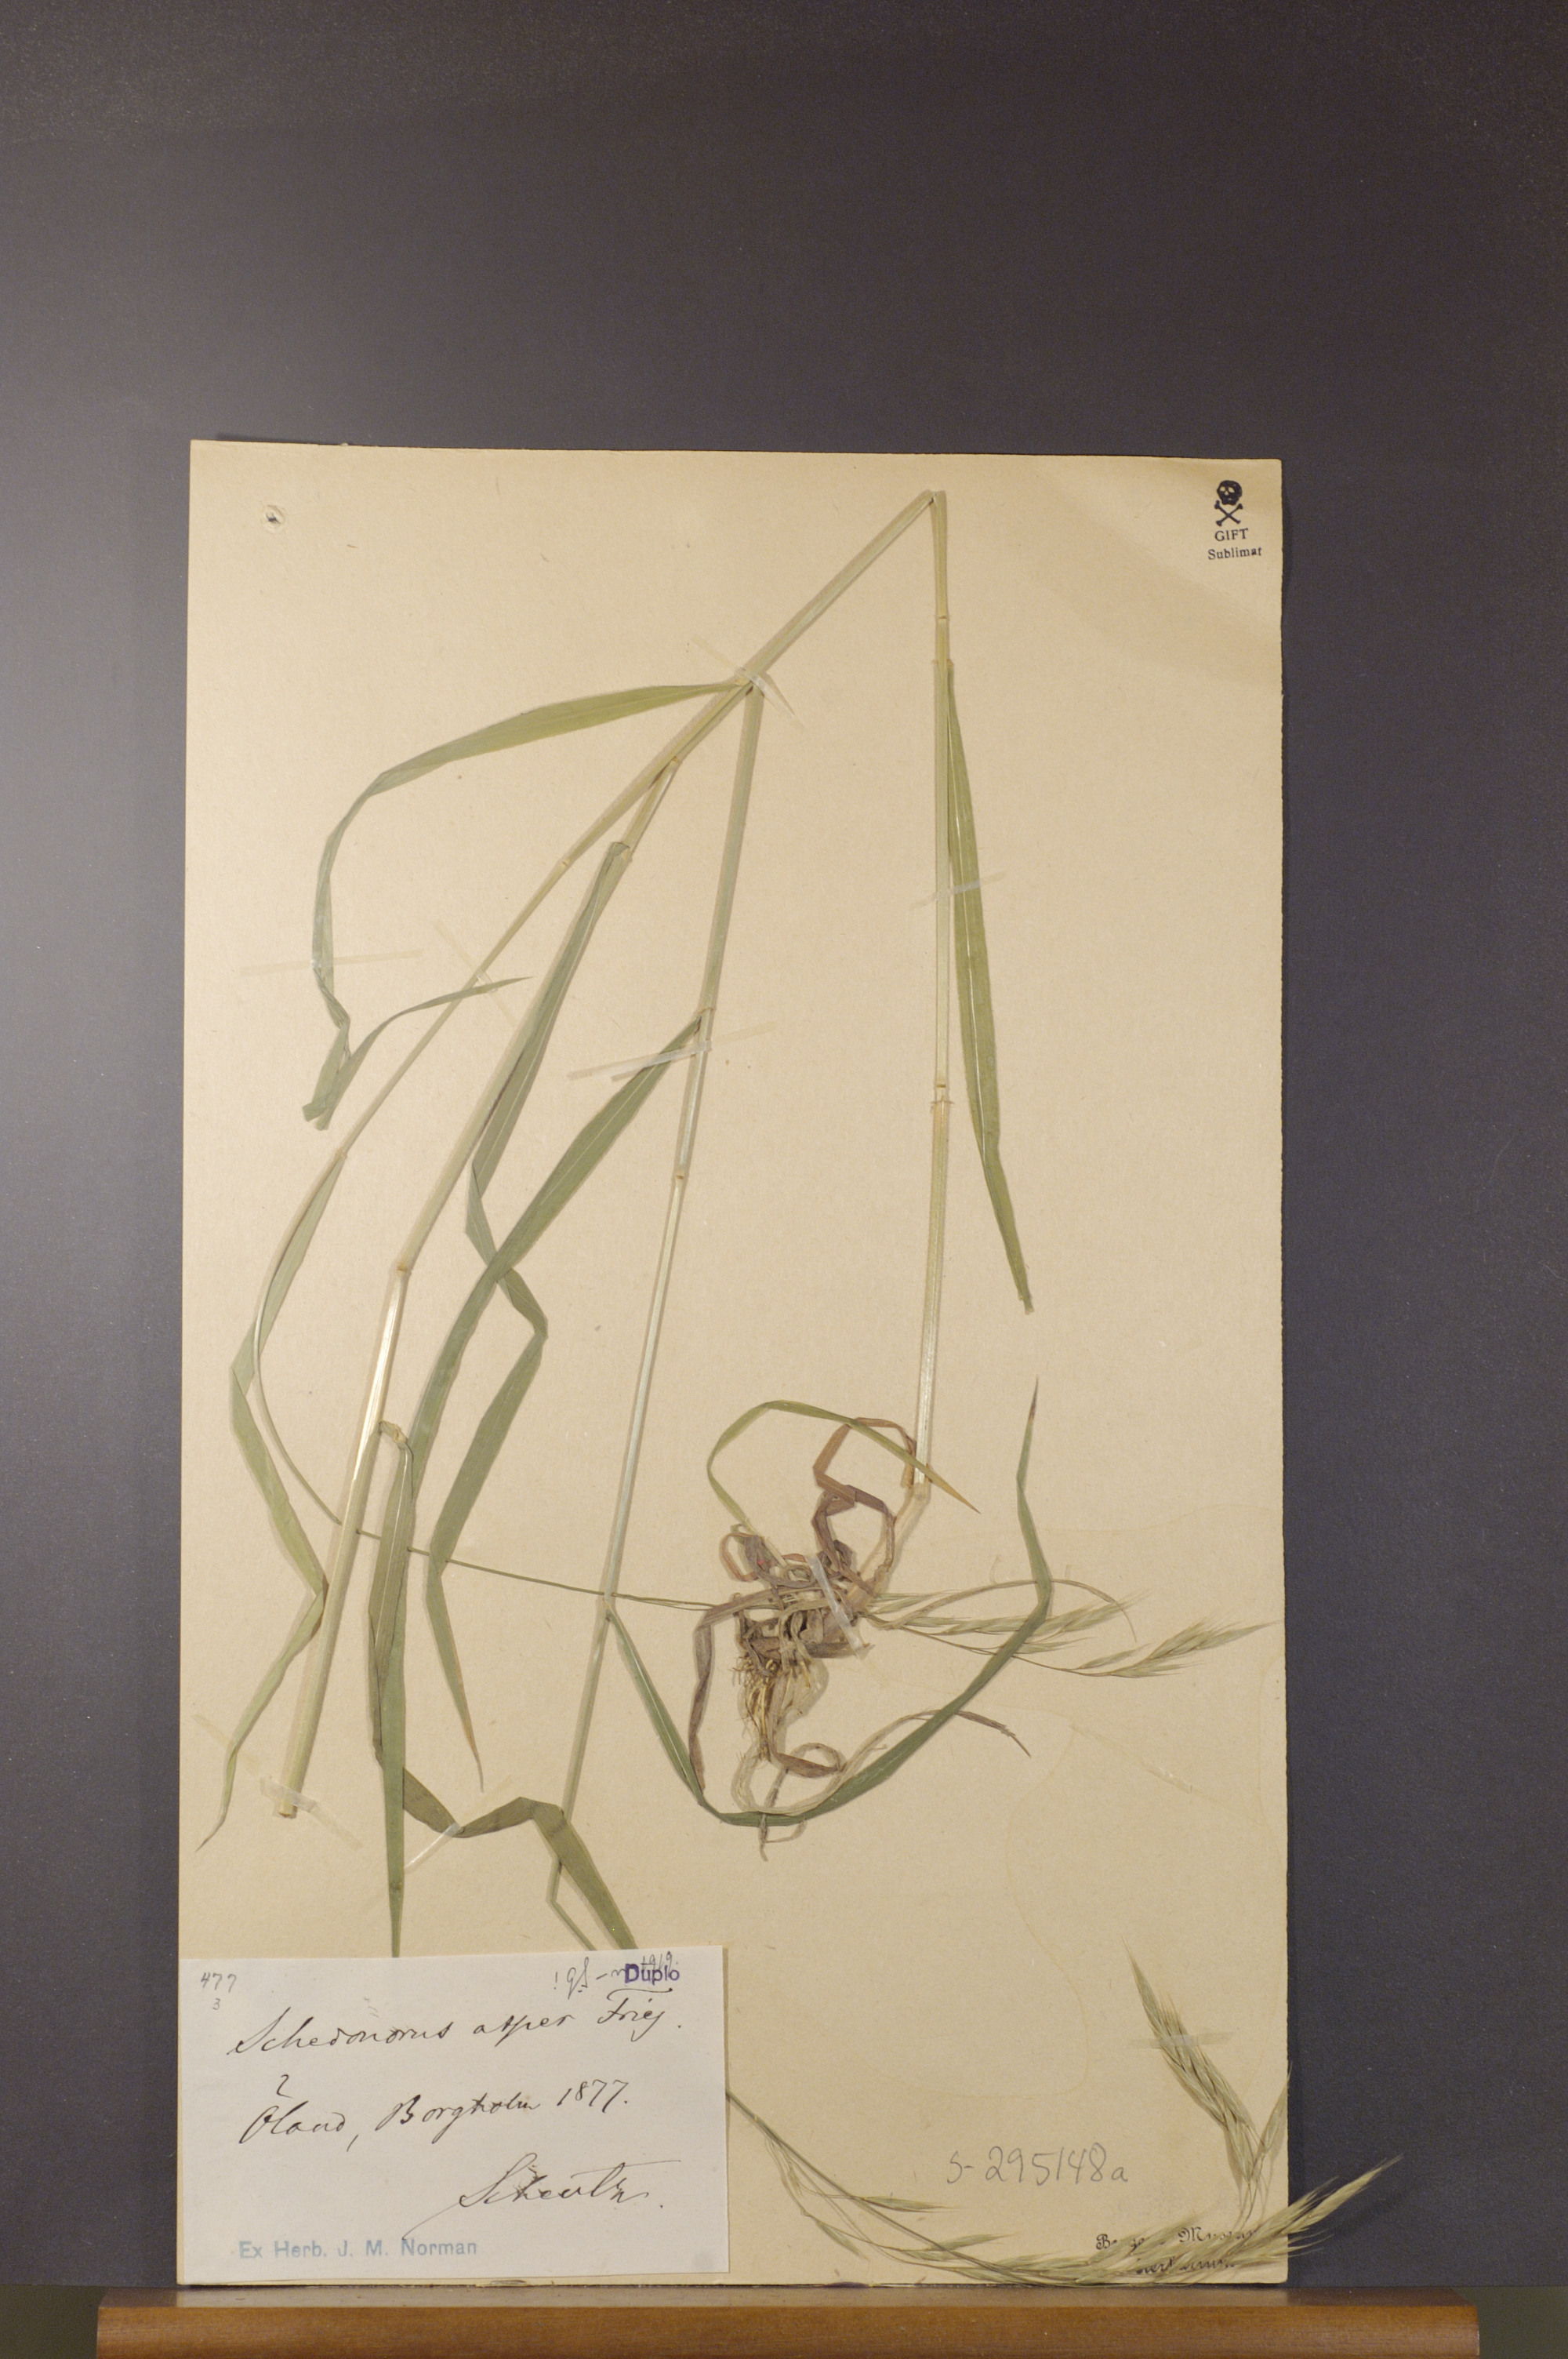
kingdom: Plantae
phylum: Tracheophyta
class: Liliopsida
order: Poales
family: Poaceae
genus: Bromus
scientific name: Bromus ramosus
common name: Hairy brome
